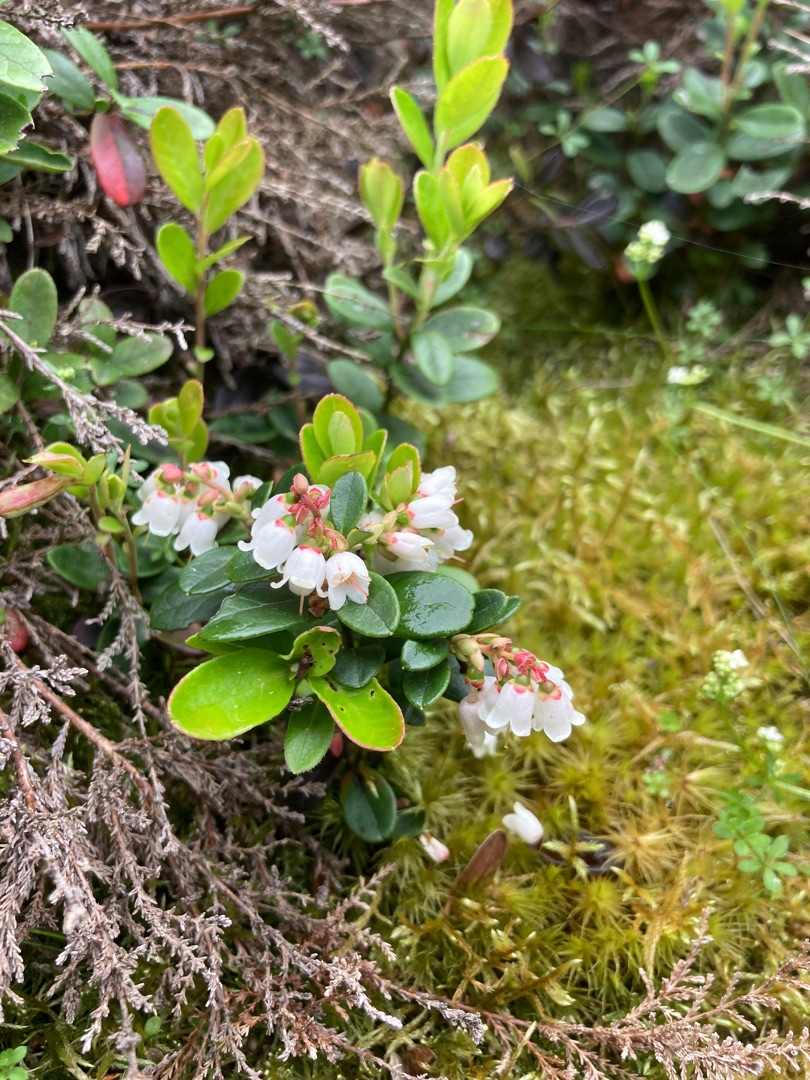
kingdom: Plantae
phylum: Tracheophyta
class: Magnoliopsida
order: Ericales
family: Ericaceae
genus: Vaccinium
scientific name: Vaccinium vitis-idaea
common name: Tyttebær
